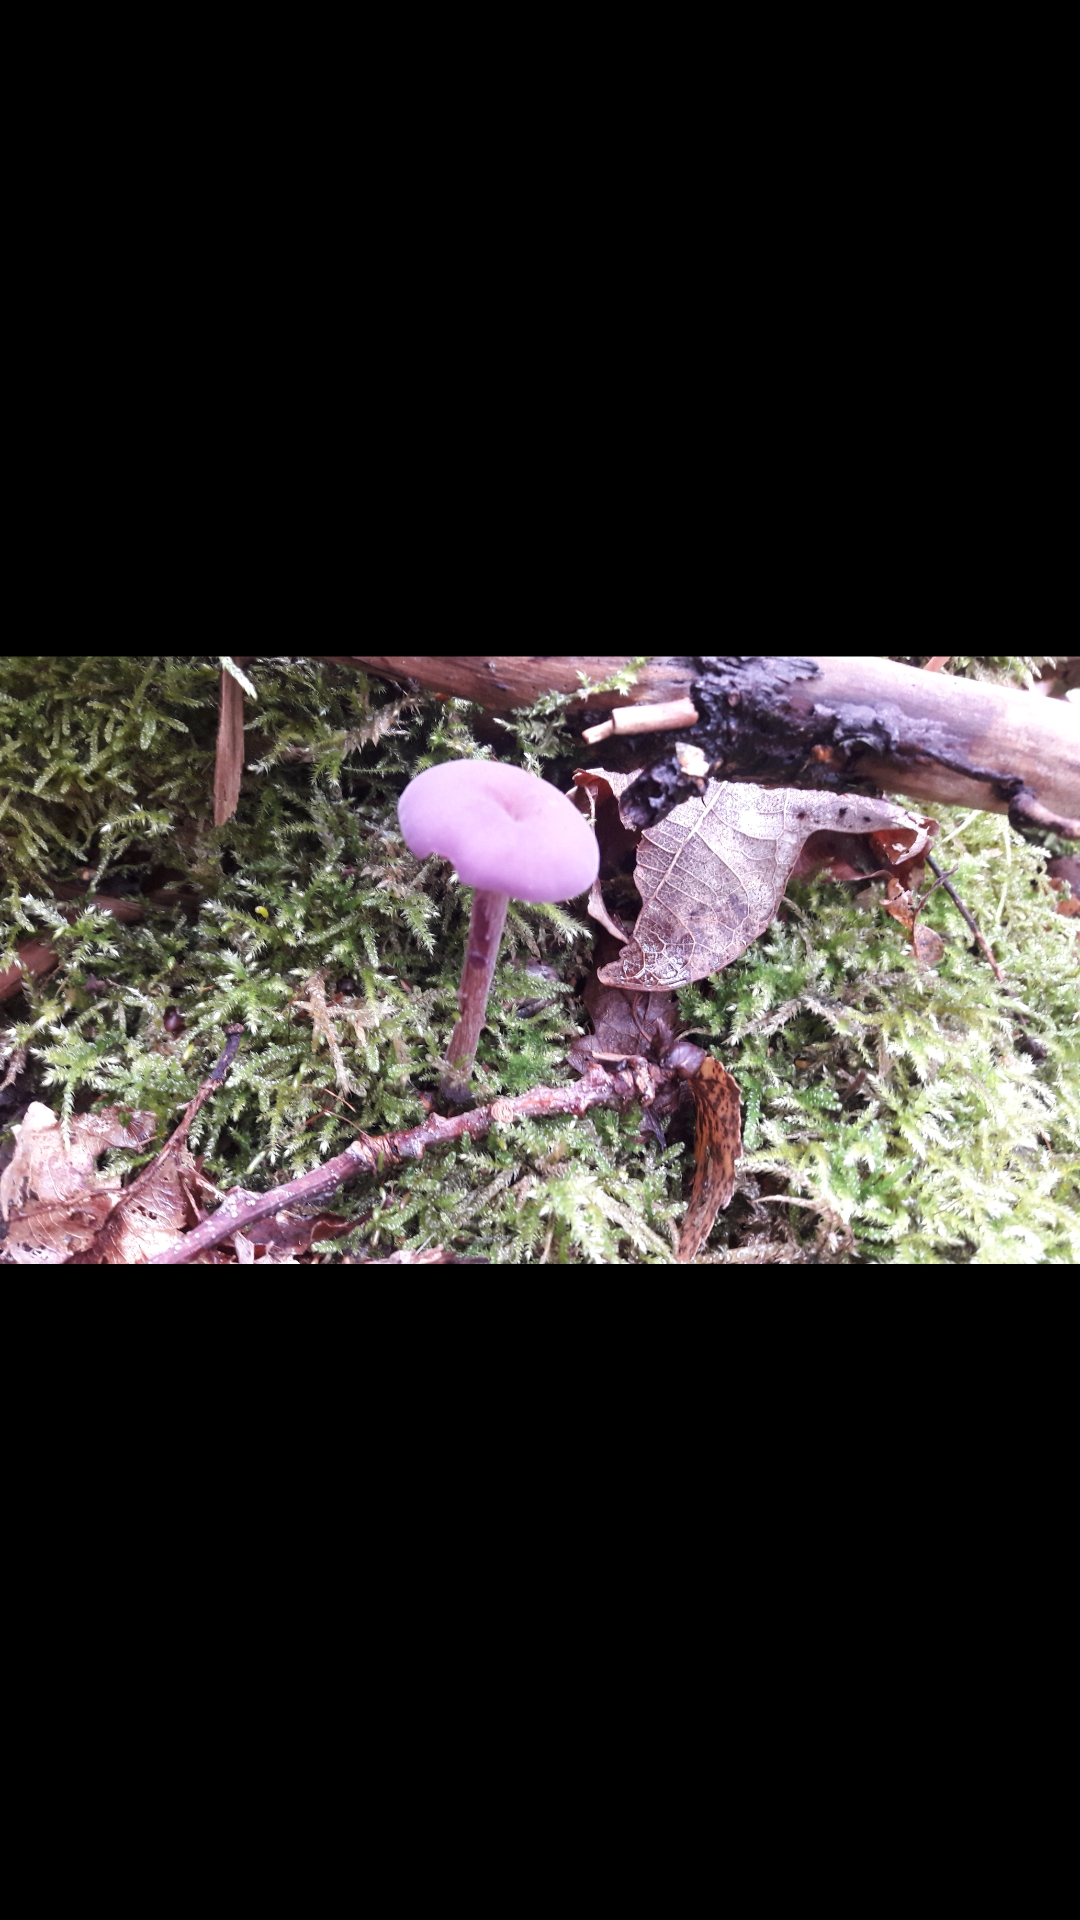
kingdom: Fungi
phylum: Basidiomycota
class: Agaricomycetes
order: Agaricales
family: Hydnangiaceae
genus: Laccaria
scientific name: Laccaria amethystina
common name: violet ametysthat
